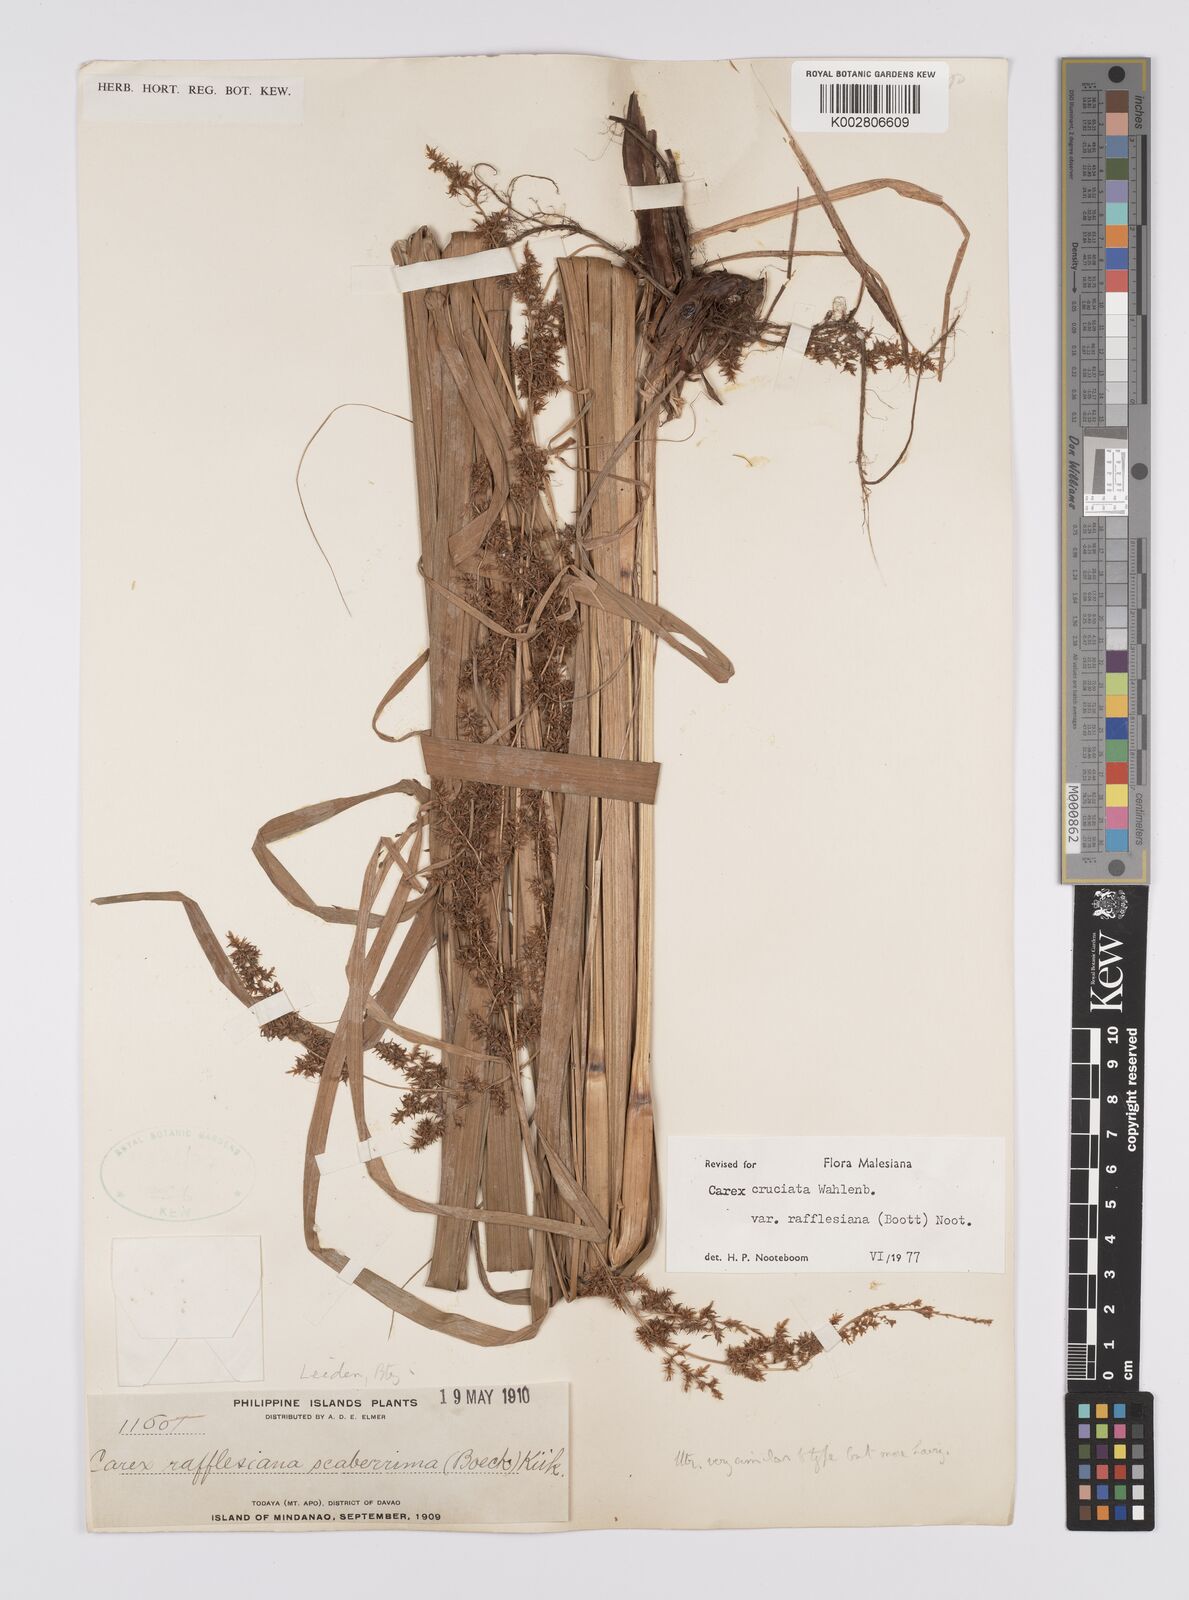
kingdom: Plantae
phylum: Tracheophyta
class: Liliopsida
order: Poales
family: Cyperaceae
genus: Carex
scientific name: Carex rafflesiana
